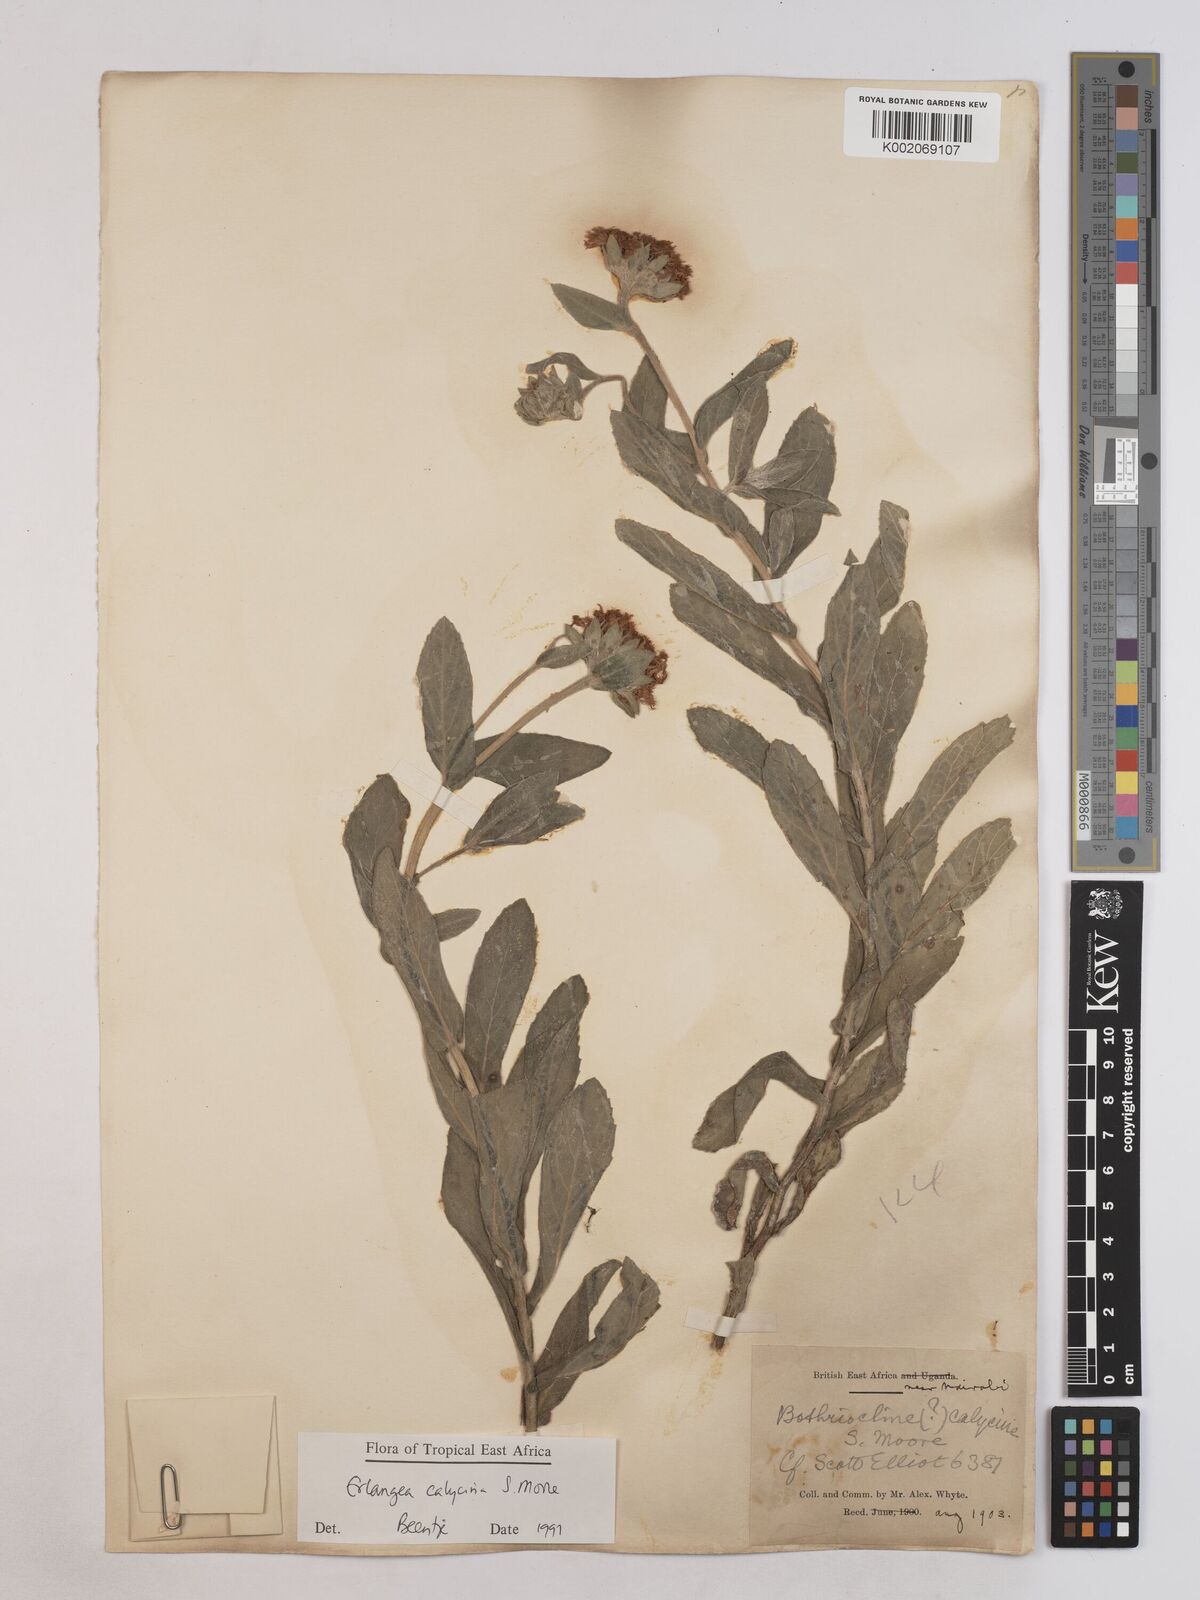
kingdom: Plantae
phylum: Tracheophyta
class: Magnoliopsida
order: Asterales
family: Asteraceae
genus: Erlangea
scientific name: Erlangea calycina
